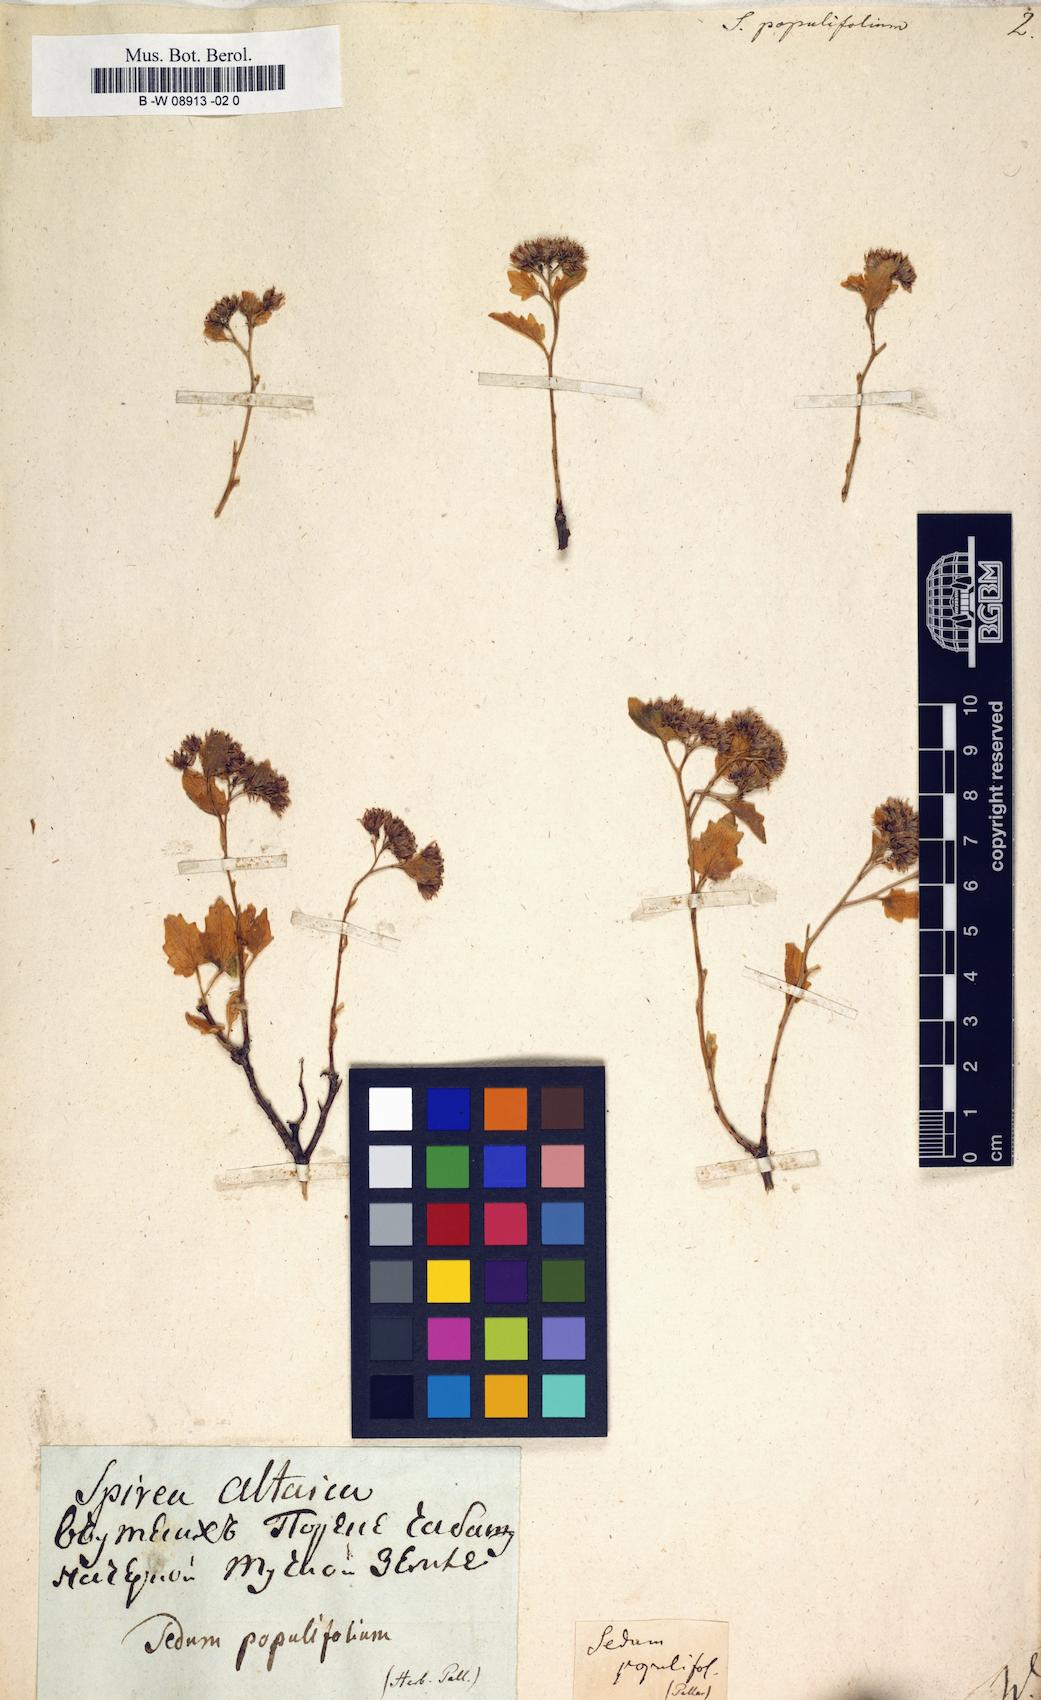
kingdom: Plantae
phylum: Tracheophyta
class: Magnoliopsida
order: Saxifragales
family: Crassulaceae
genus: Hylotelephium
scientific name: Hylotelephium populifolium
